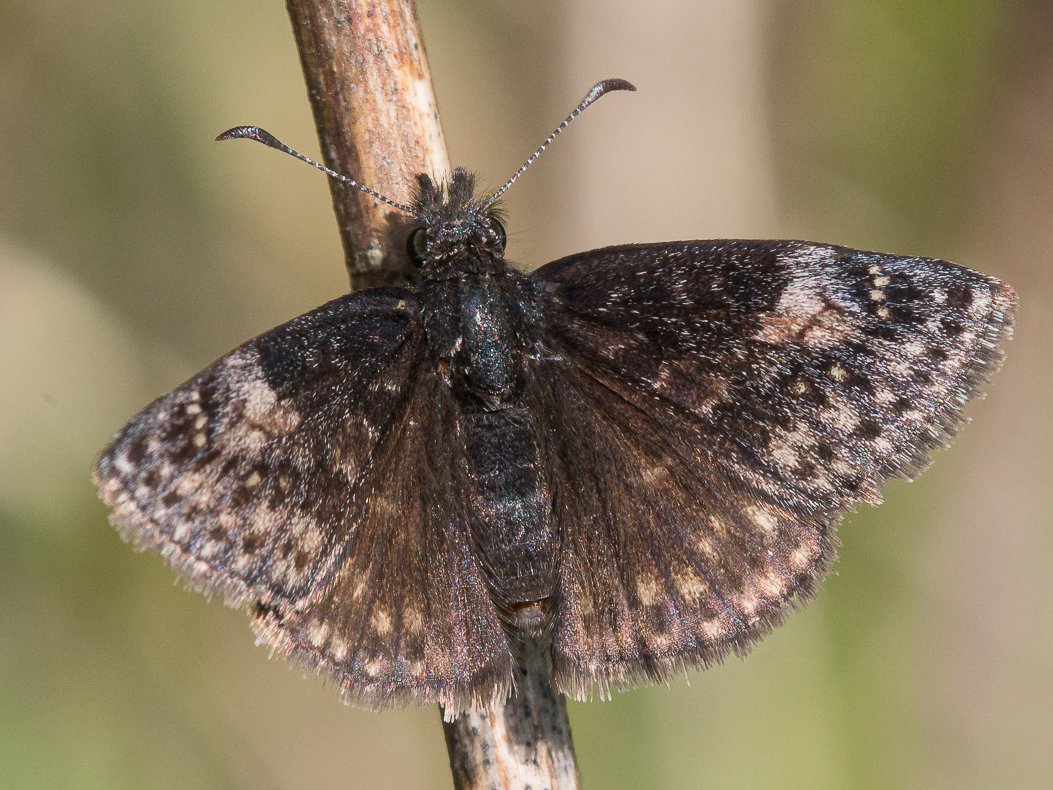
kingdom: Animalia
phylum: Arthropoda
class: Insecta
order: Lepidoptera
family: Hesperiidae
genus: Gesta
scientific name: Gesta
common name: Persius Duskywing
